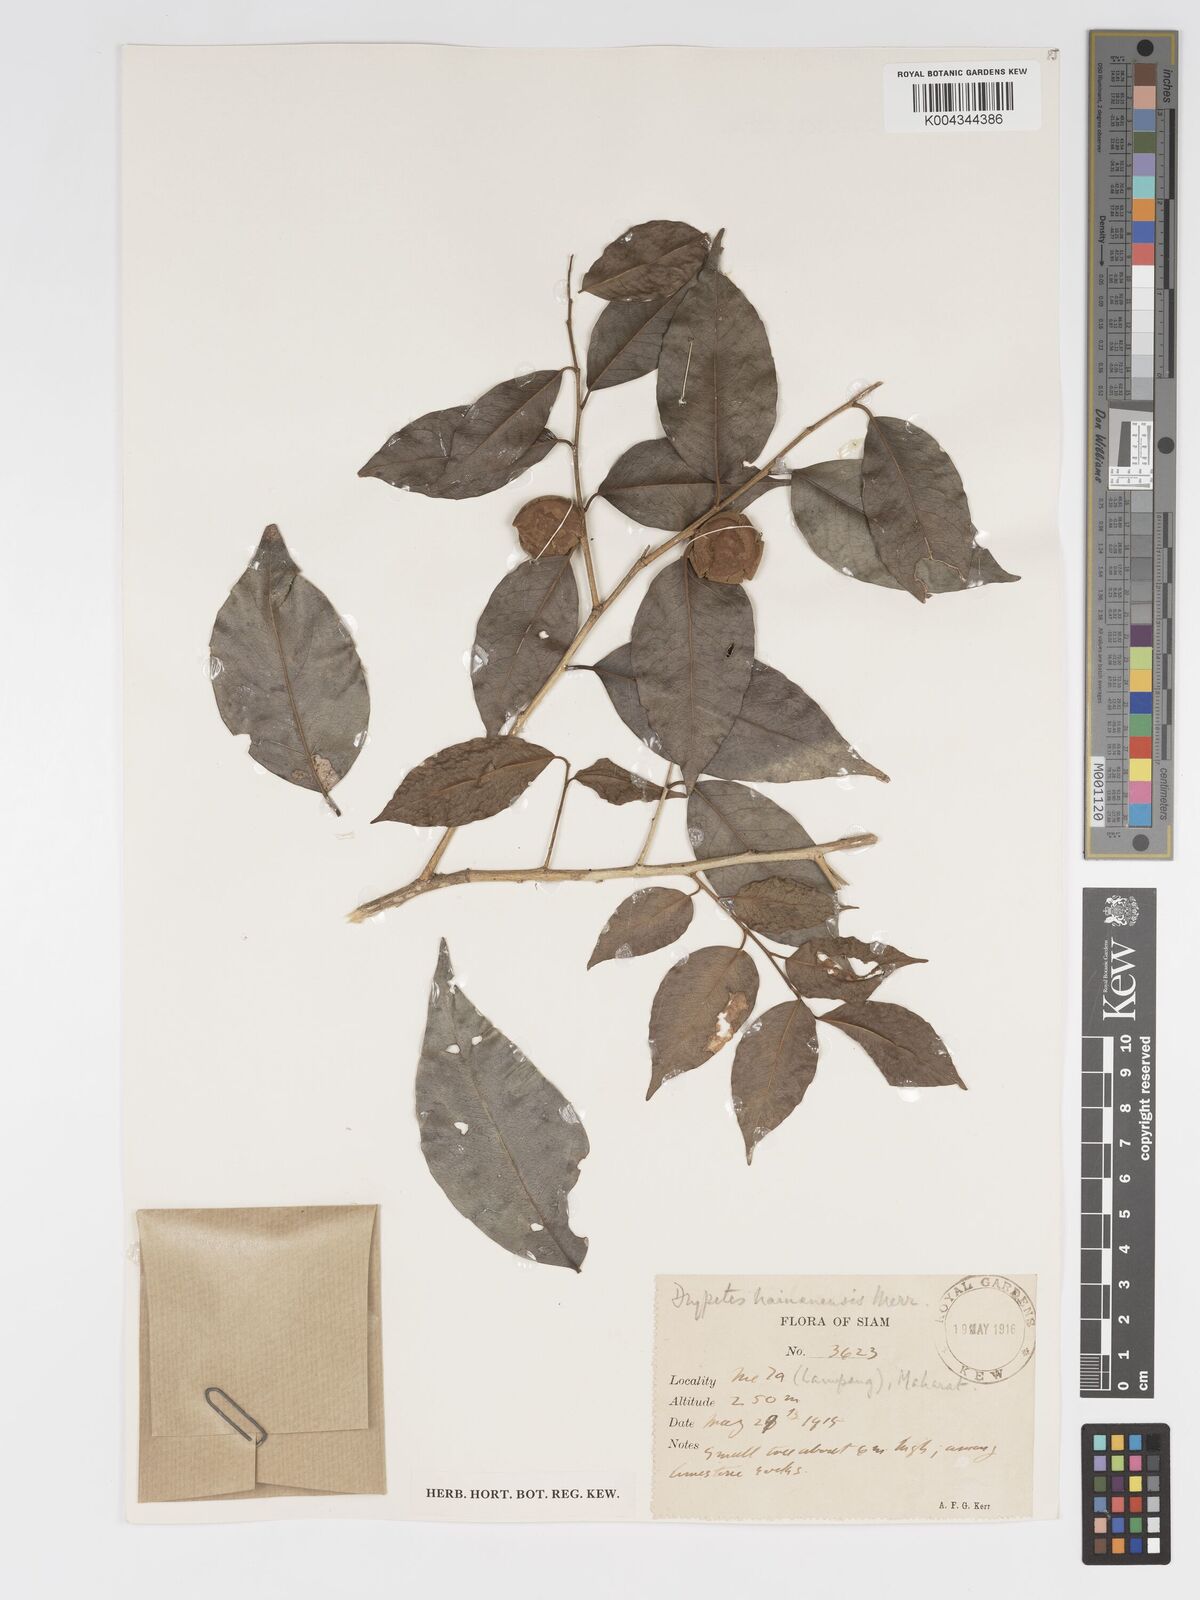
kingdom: Plantae
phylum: Tracheophyta
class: Magnoliopsida
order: Malpighiales
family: Putranjivaceae
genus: Drypetes
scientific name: Drypetes hainanensis
